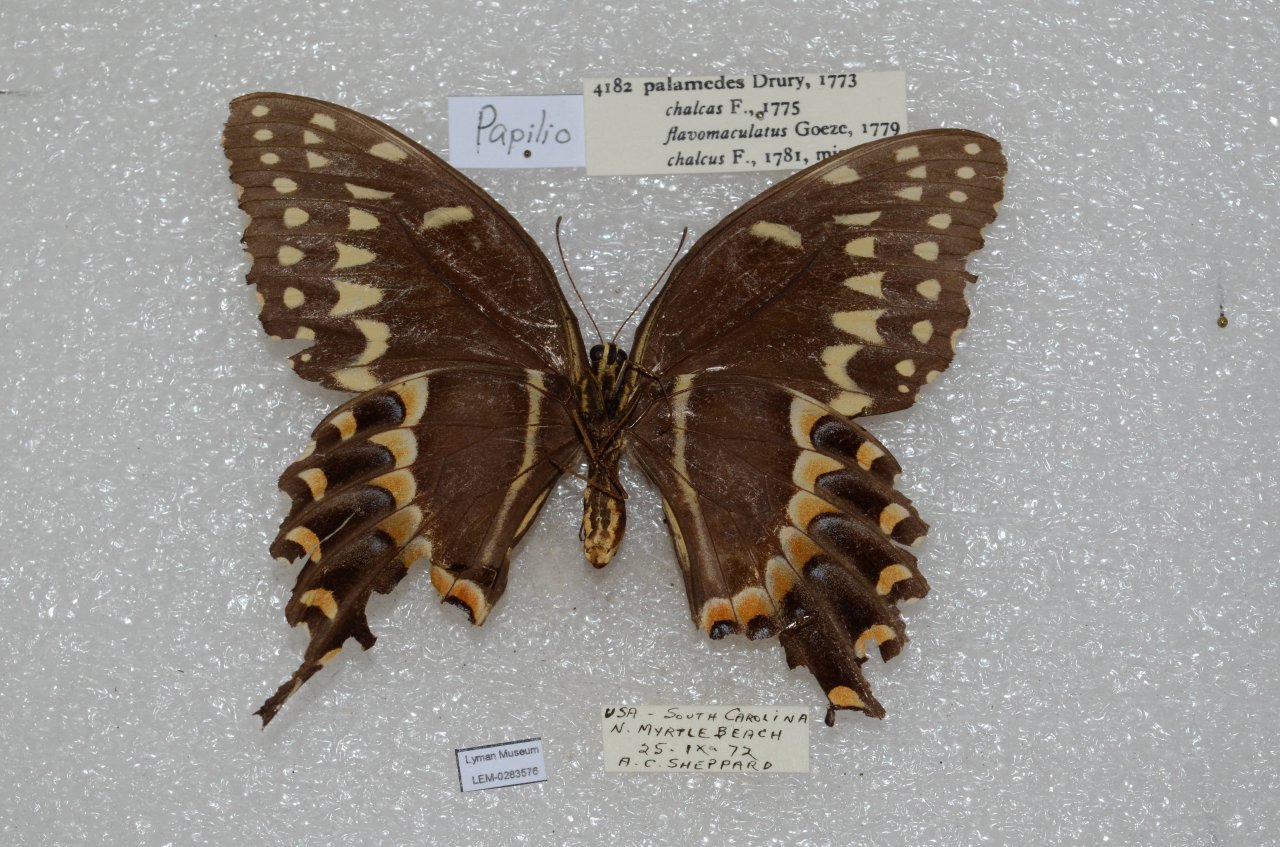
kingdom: Animalia
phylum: Arthropoda
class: Insecta
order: Lepidoptera
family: Papilionidae
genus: Pterourus
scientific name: Pterourus palamedes
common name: Palamedes Swallowtail
